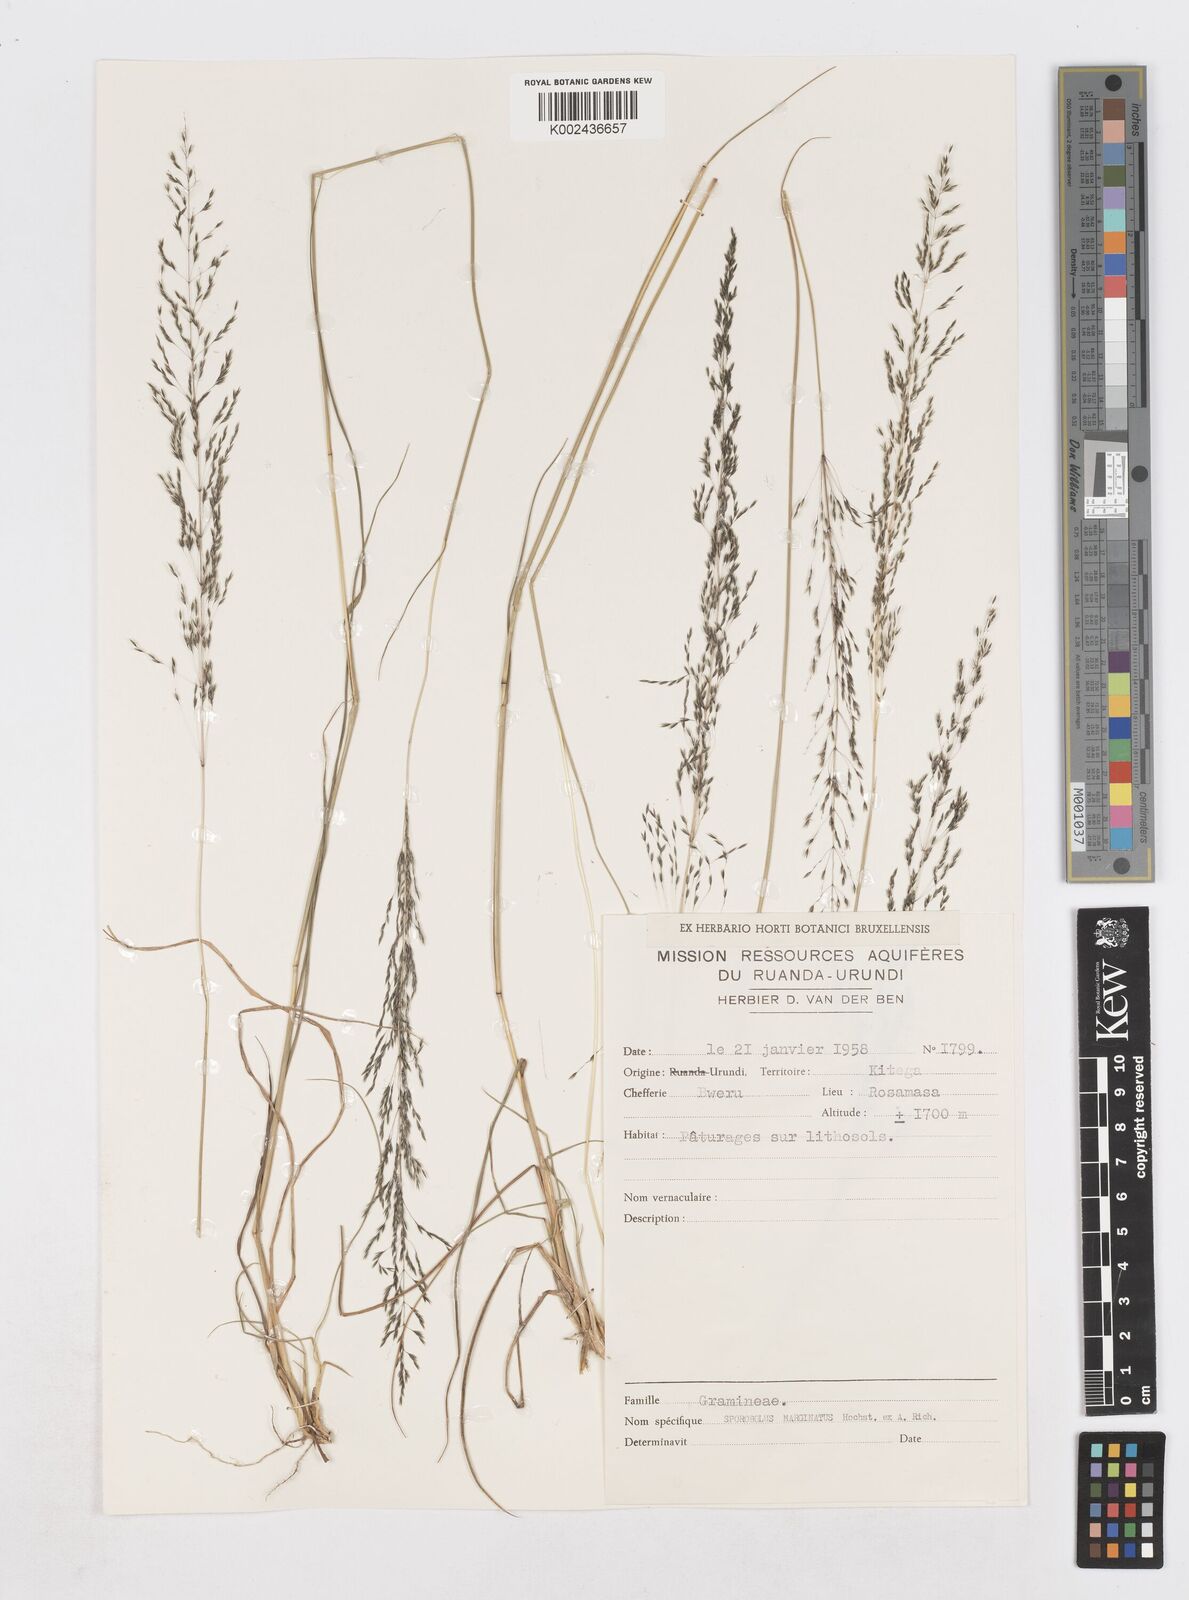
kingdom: Plantae
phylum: Tracheophyta
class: Liliopsida
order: Poales
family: Poaceae
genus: Sporobolus
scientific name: Sporobolus sanguineus
